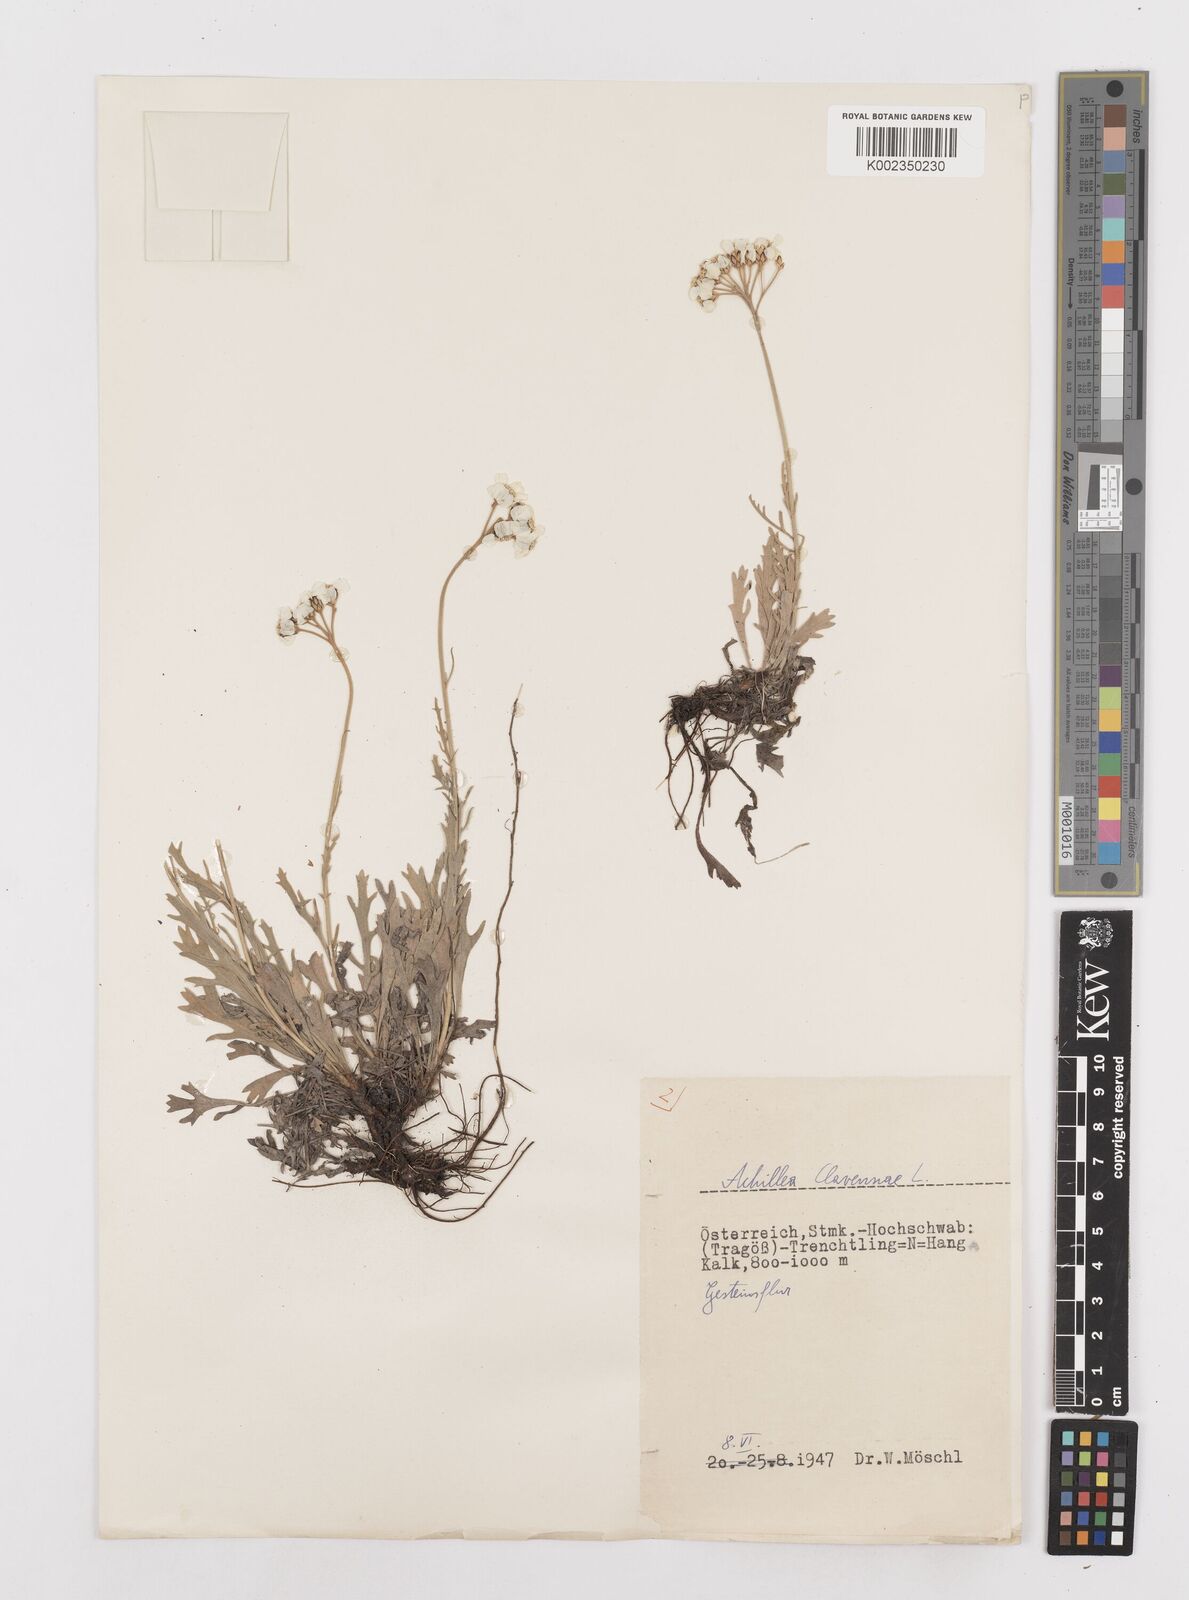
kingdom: Plantae
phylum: Tracheophyta
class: Magnoliopsida
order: Asterales
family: Asteraceae
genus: Achillea
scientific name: Achillea clavennae
